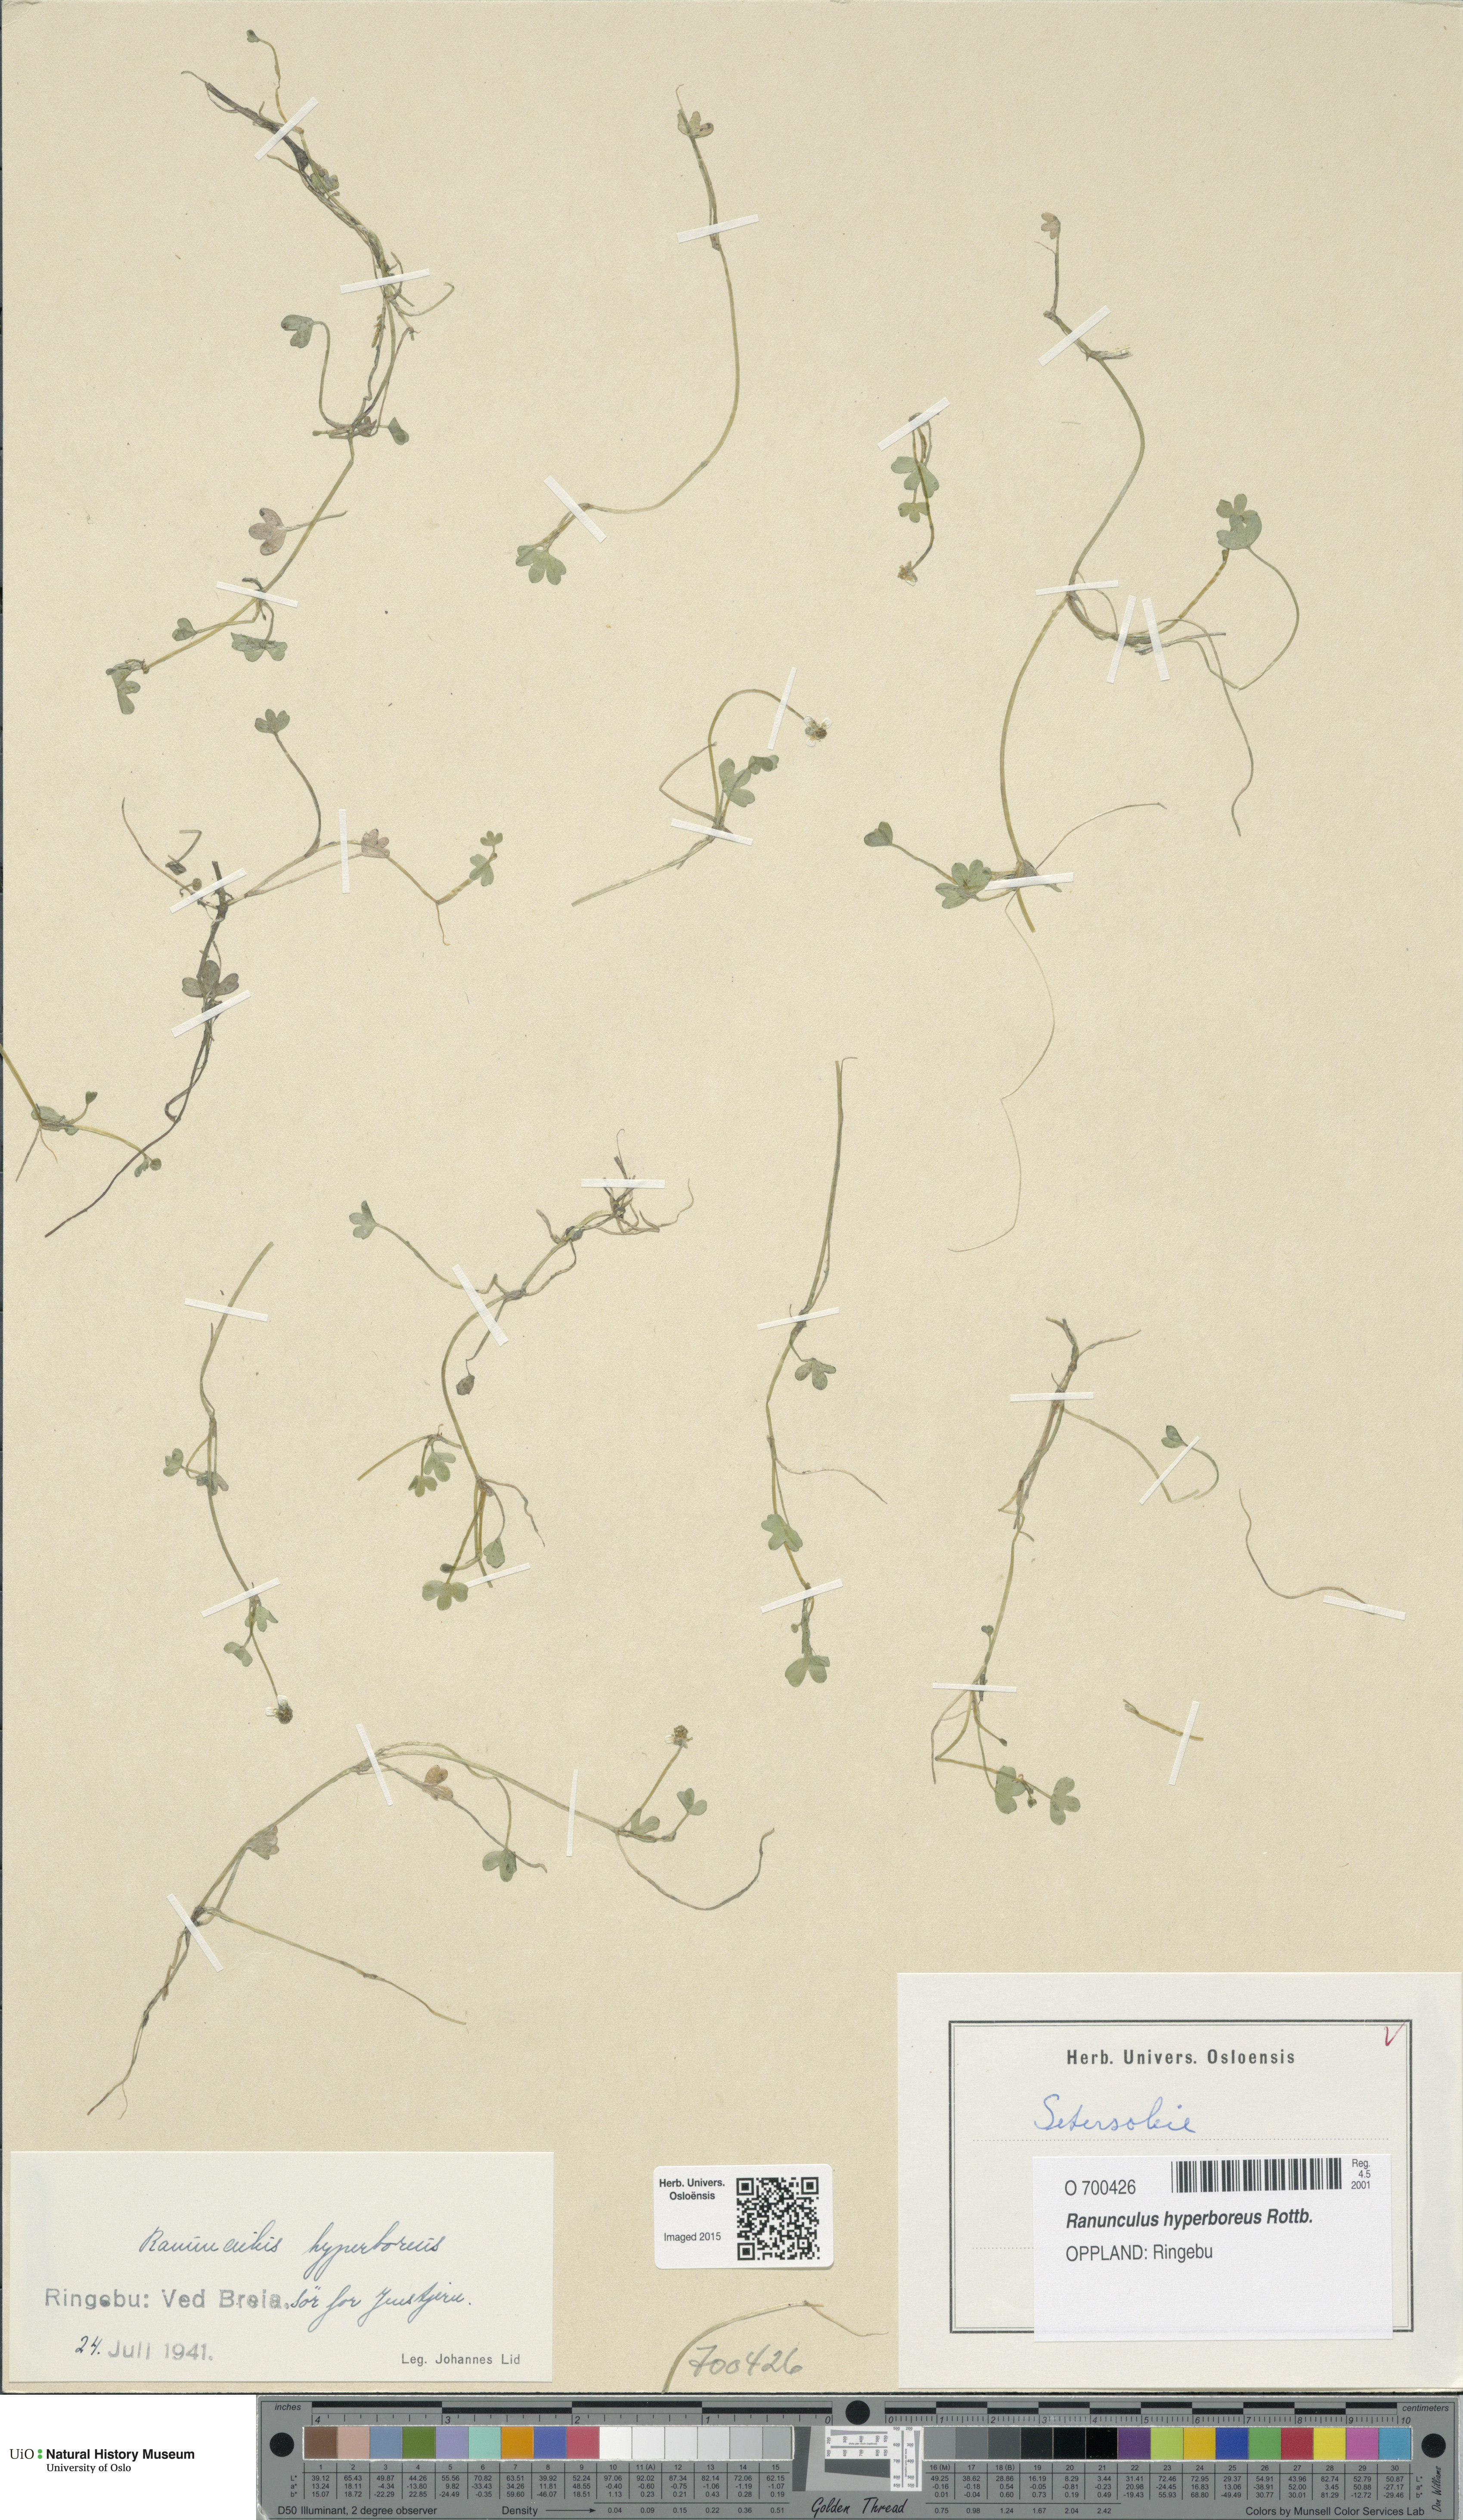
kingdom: Plantae
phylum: Tracheophyta
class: Magnoliopsida
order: Ranunculales
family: Ranunculaceae
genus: Ranunculus
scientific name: Ranunculus hyperboreus
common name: Arctic buttercup
